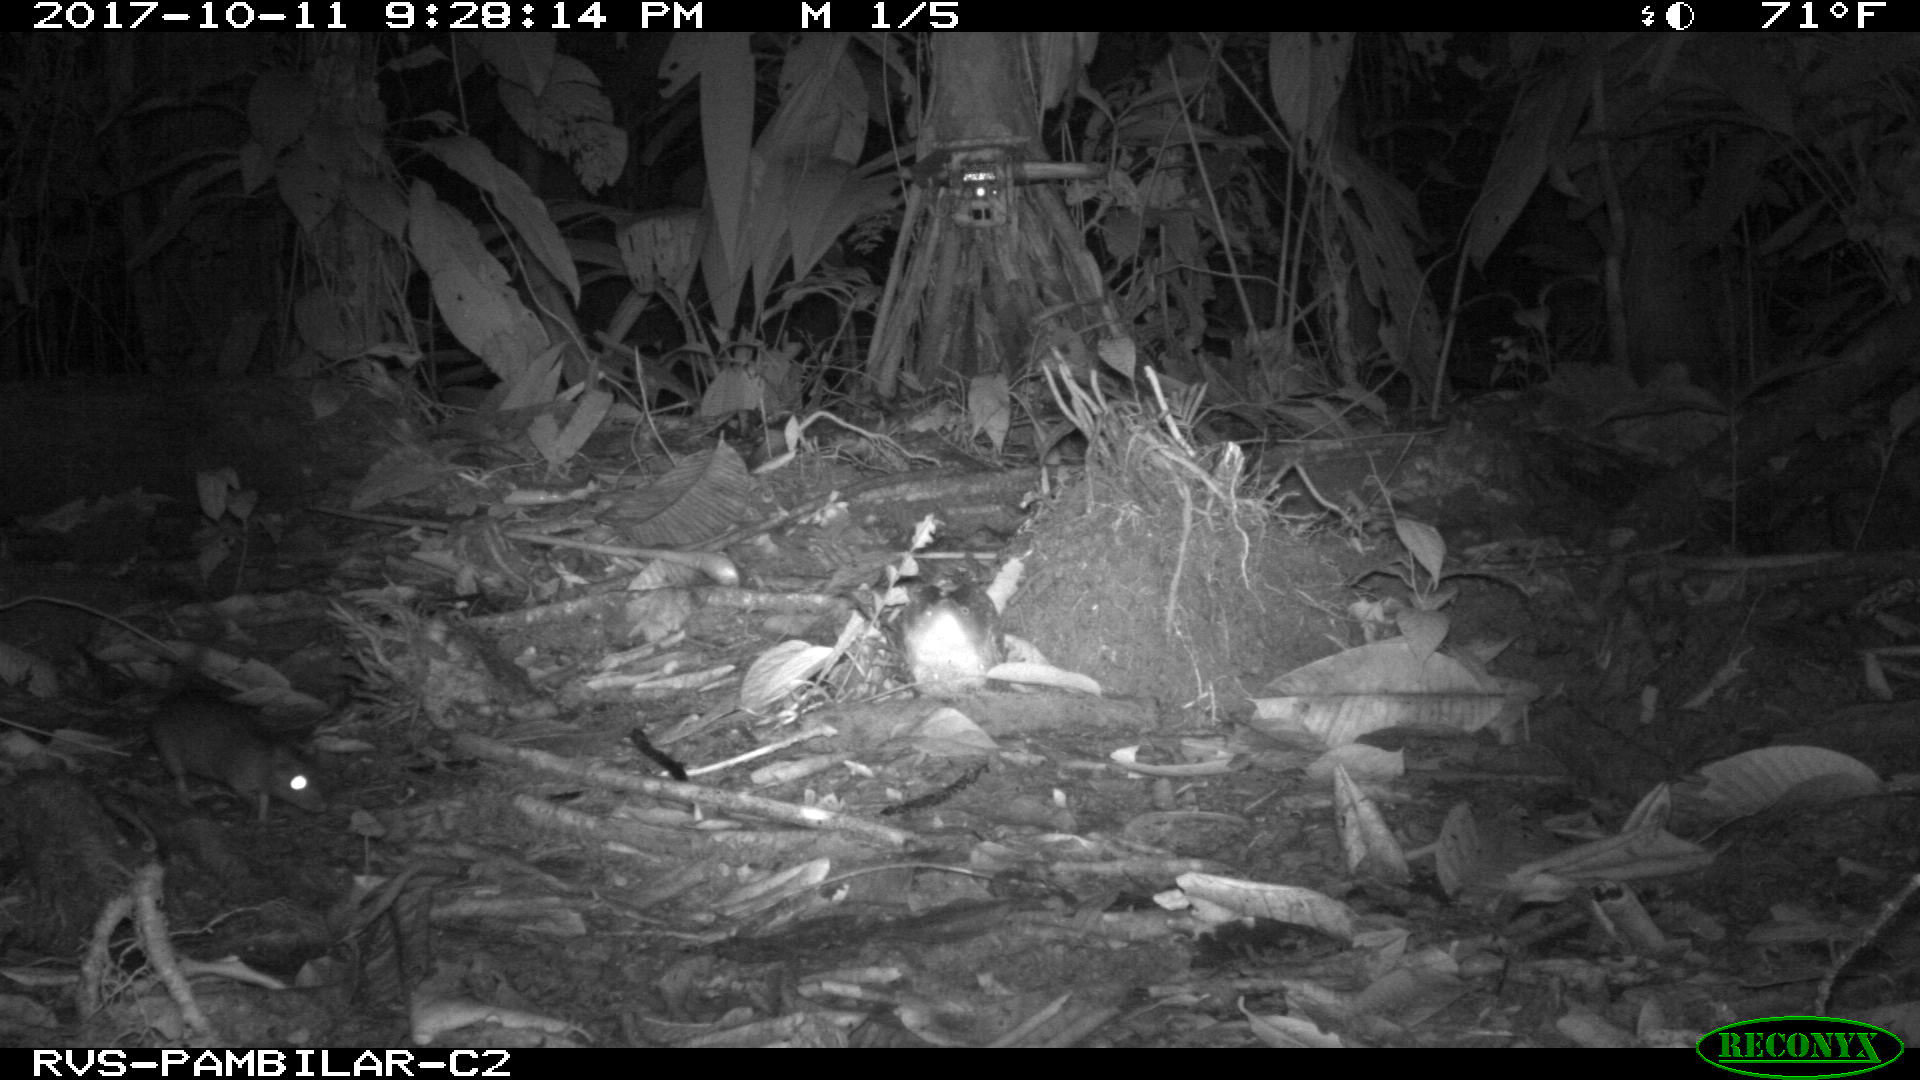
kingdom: Animalia
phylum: Chordata
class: Mammalia
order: Rodentia
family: Echimyidae
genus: Proechimys
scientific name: Proechimys
